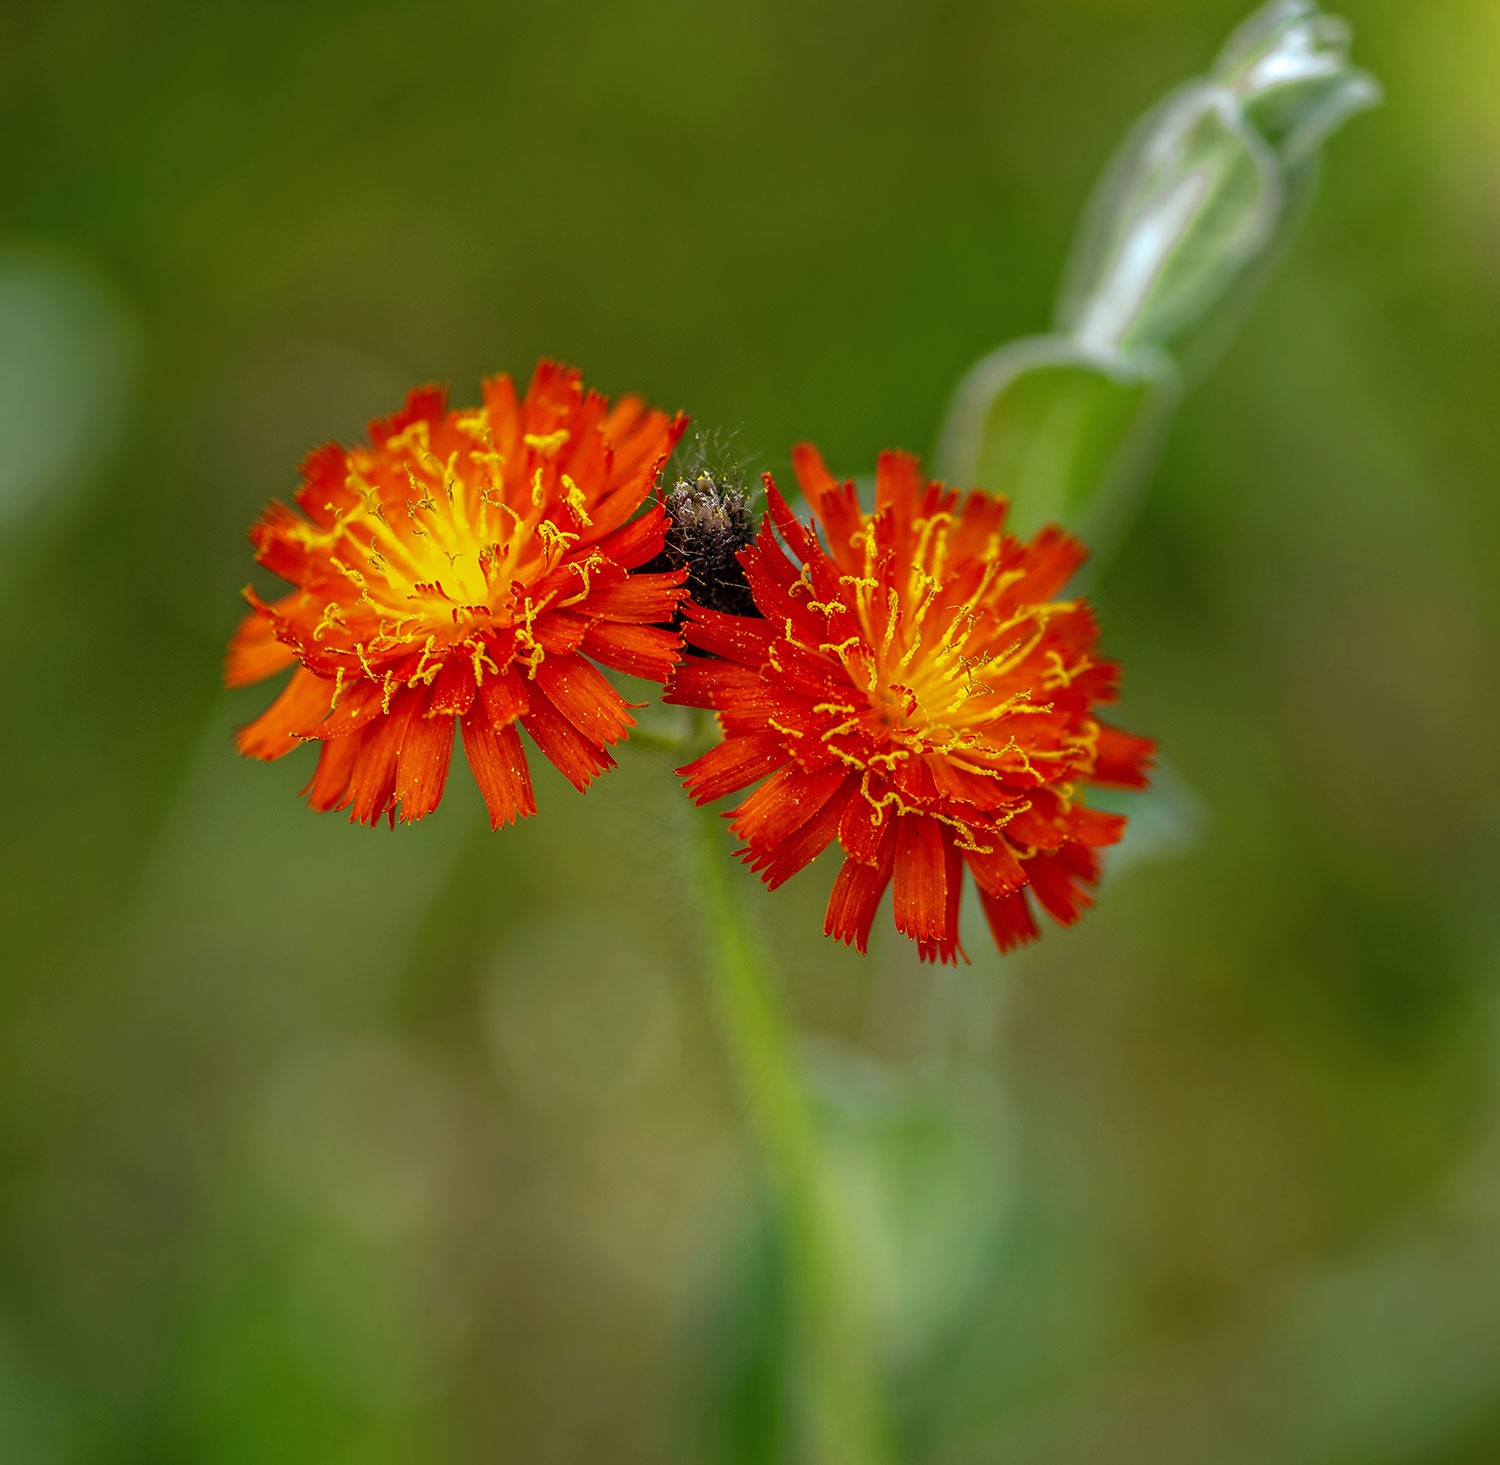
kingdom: Plantae
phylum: Tracheophyta
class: Magnoliopsida
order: Asterales
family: Asteraceae
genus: Pilosella
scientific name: Pilosella aurantiaca
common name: Pomerans-høgeurt
